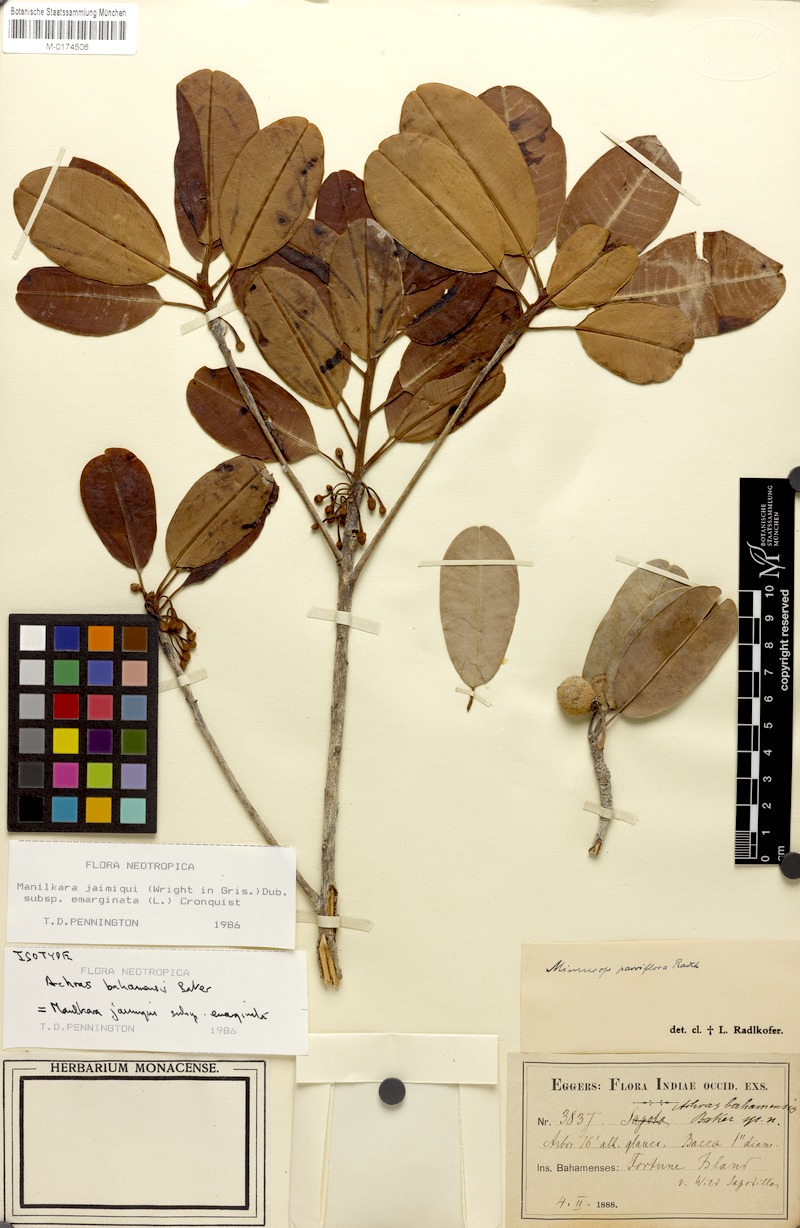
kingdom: Plantae
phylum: Tracheophyta
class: Magnoliopsida
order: Ericales
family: Sapotaceae
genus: Manilkara
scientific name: Manilkara jaimiqui
